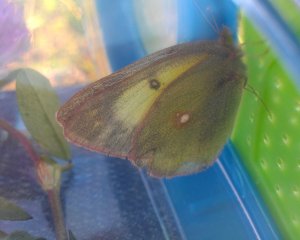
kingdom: Animalia
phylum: Arthropoda
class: Insecta
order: Lepidoptera
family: Pieridae
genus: Colias
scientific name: Colias philodice
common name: Clouded Sulphur
